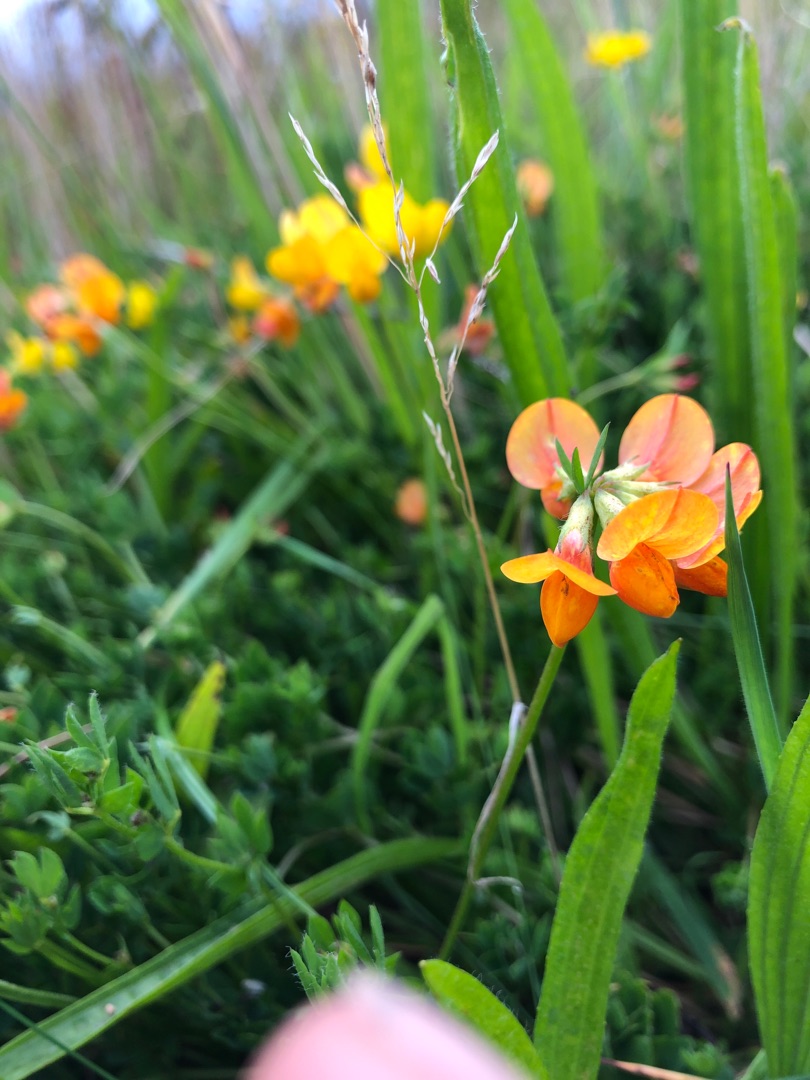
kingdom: Plantae
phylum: Tracheophyta
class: Magnoliopsida
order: Fabales
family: Fabaceae
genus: Lotus
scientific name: Lotus corniculatus
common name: Almindelig kællingetand
